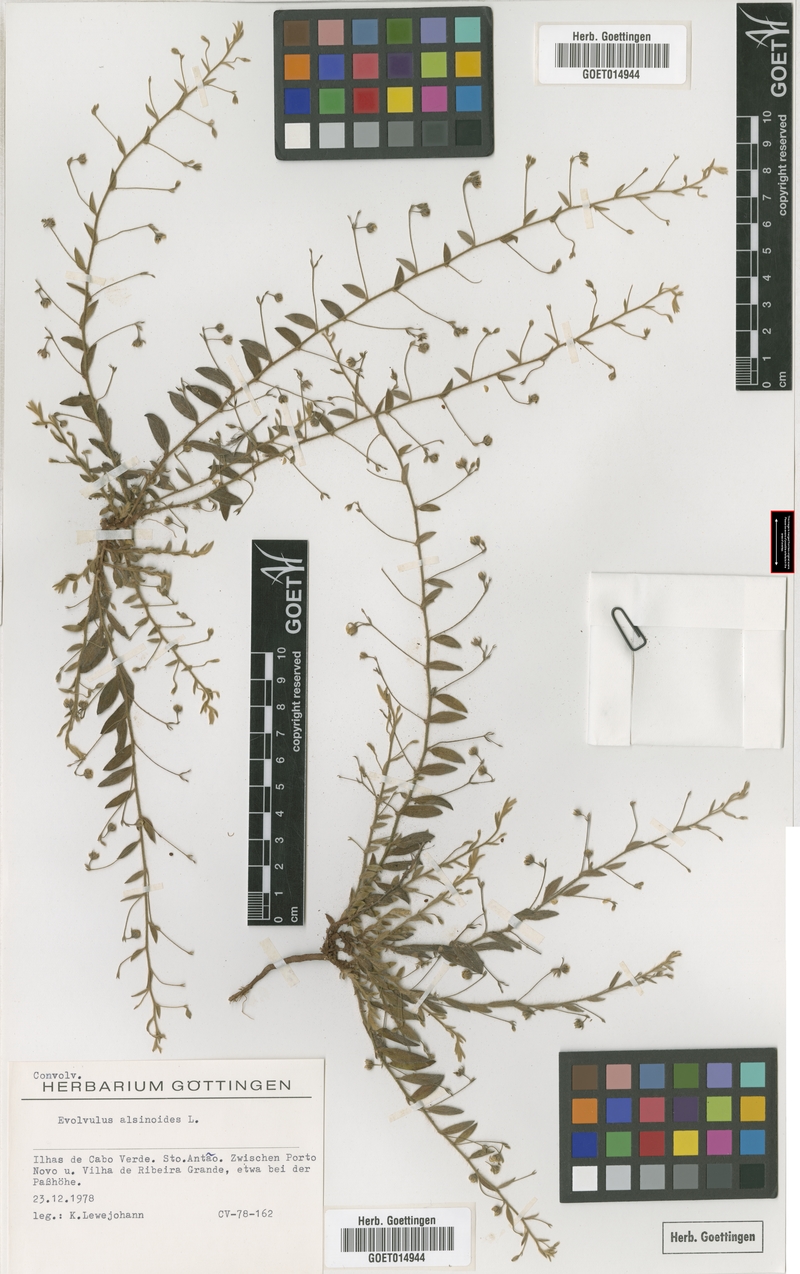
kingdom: Plantae
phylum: Tracheophyta
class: Magnoliopsida
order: Solanales
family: Convolvulaceae
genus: Evolvulus
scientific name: Evolvulus alsinoides
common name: Slender dwarf morning-glory
